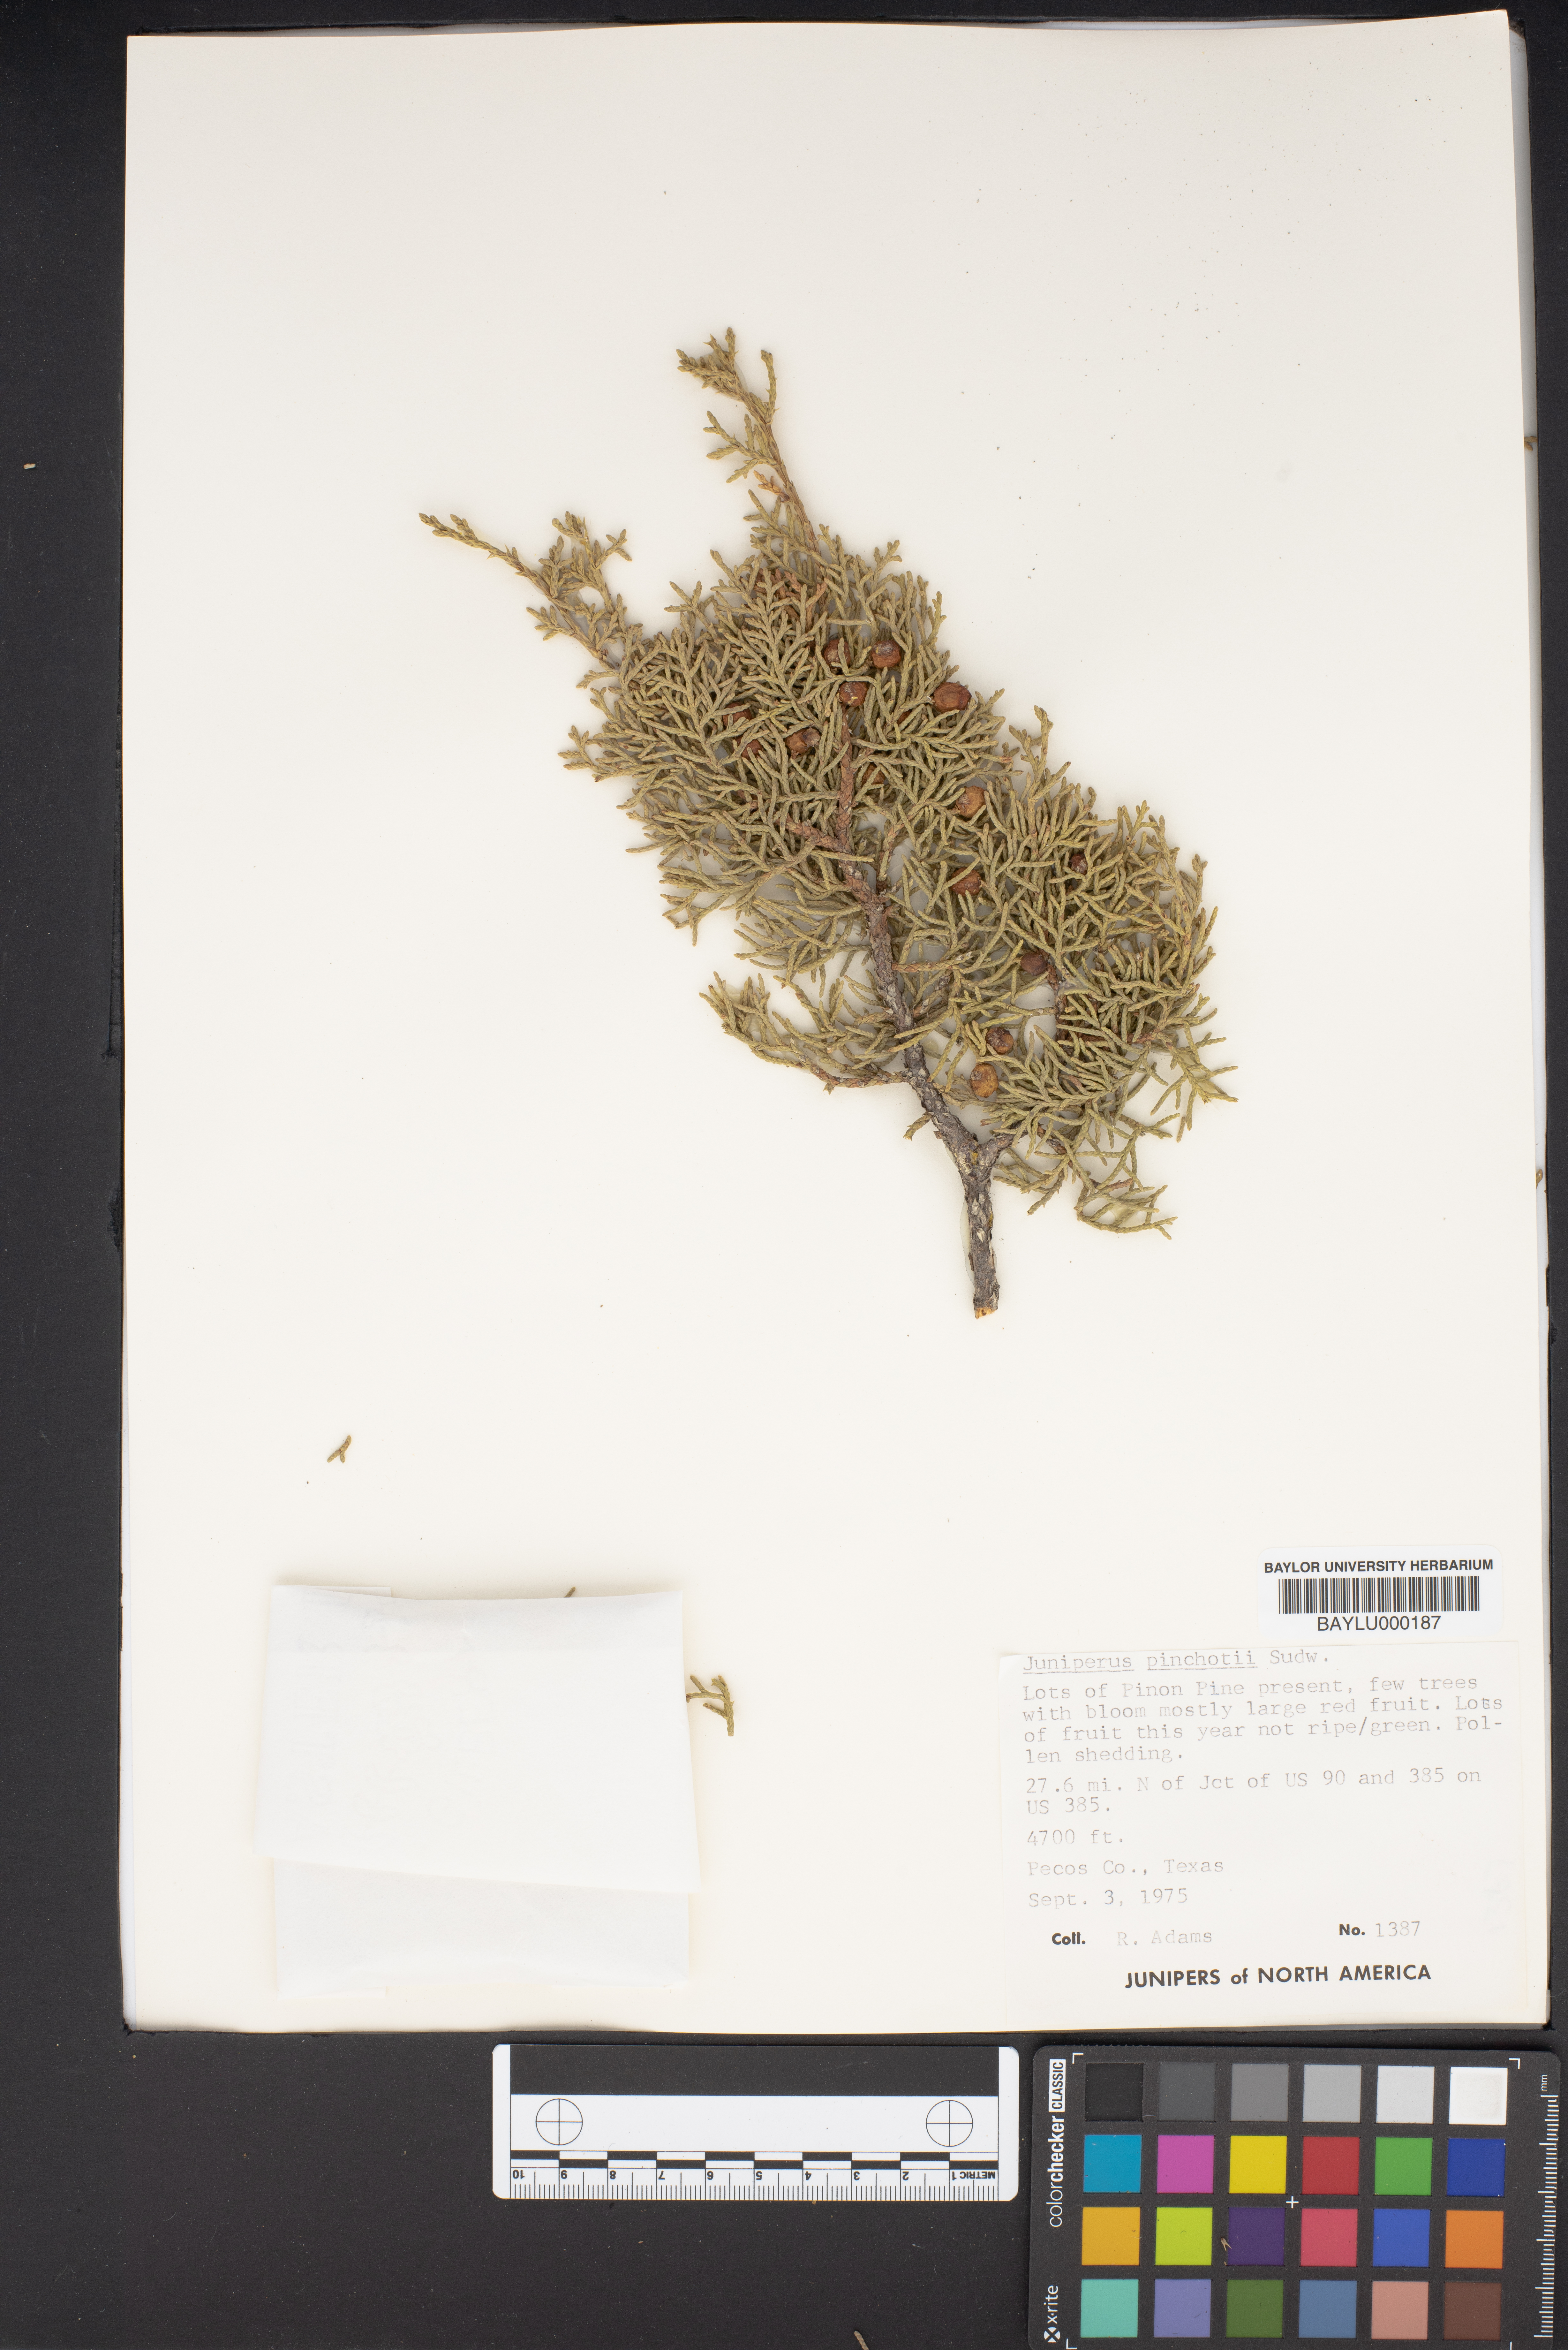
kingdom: Plantae
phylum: Tracheophyta
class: Pinopsida
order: Pinales
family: Cupressaceae
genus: Juniperus
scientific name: Juniperus pinchotii
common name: Pinchot juniper
